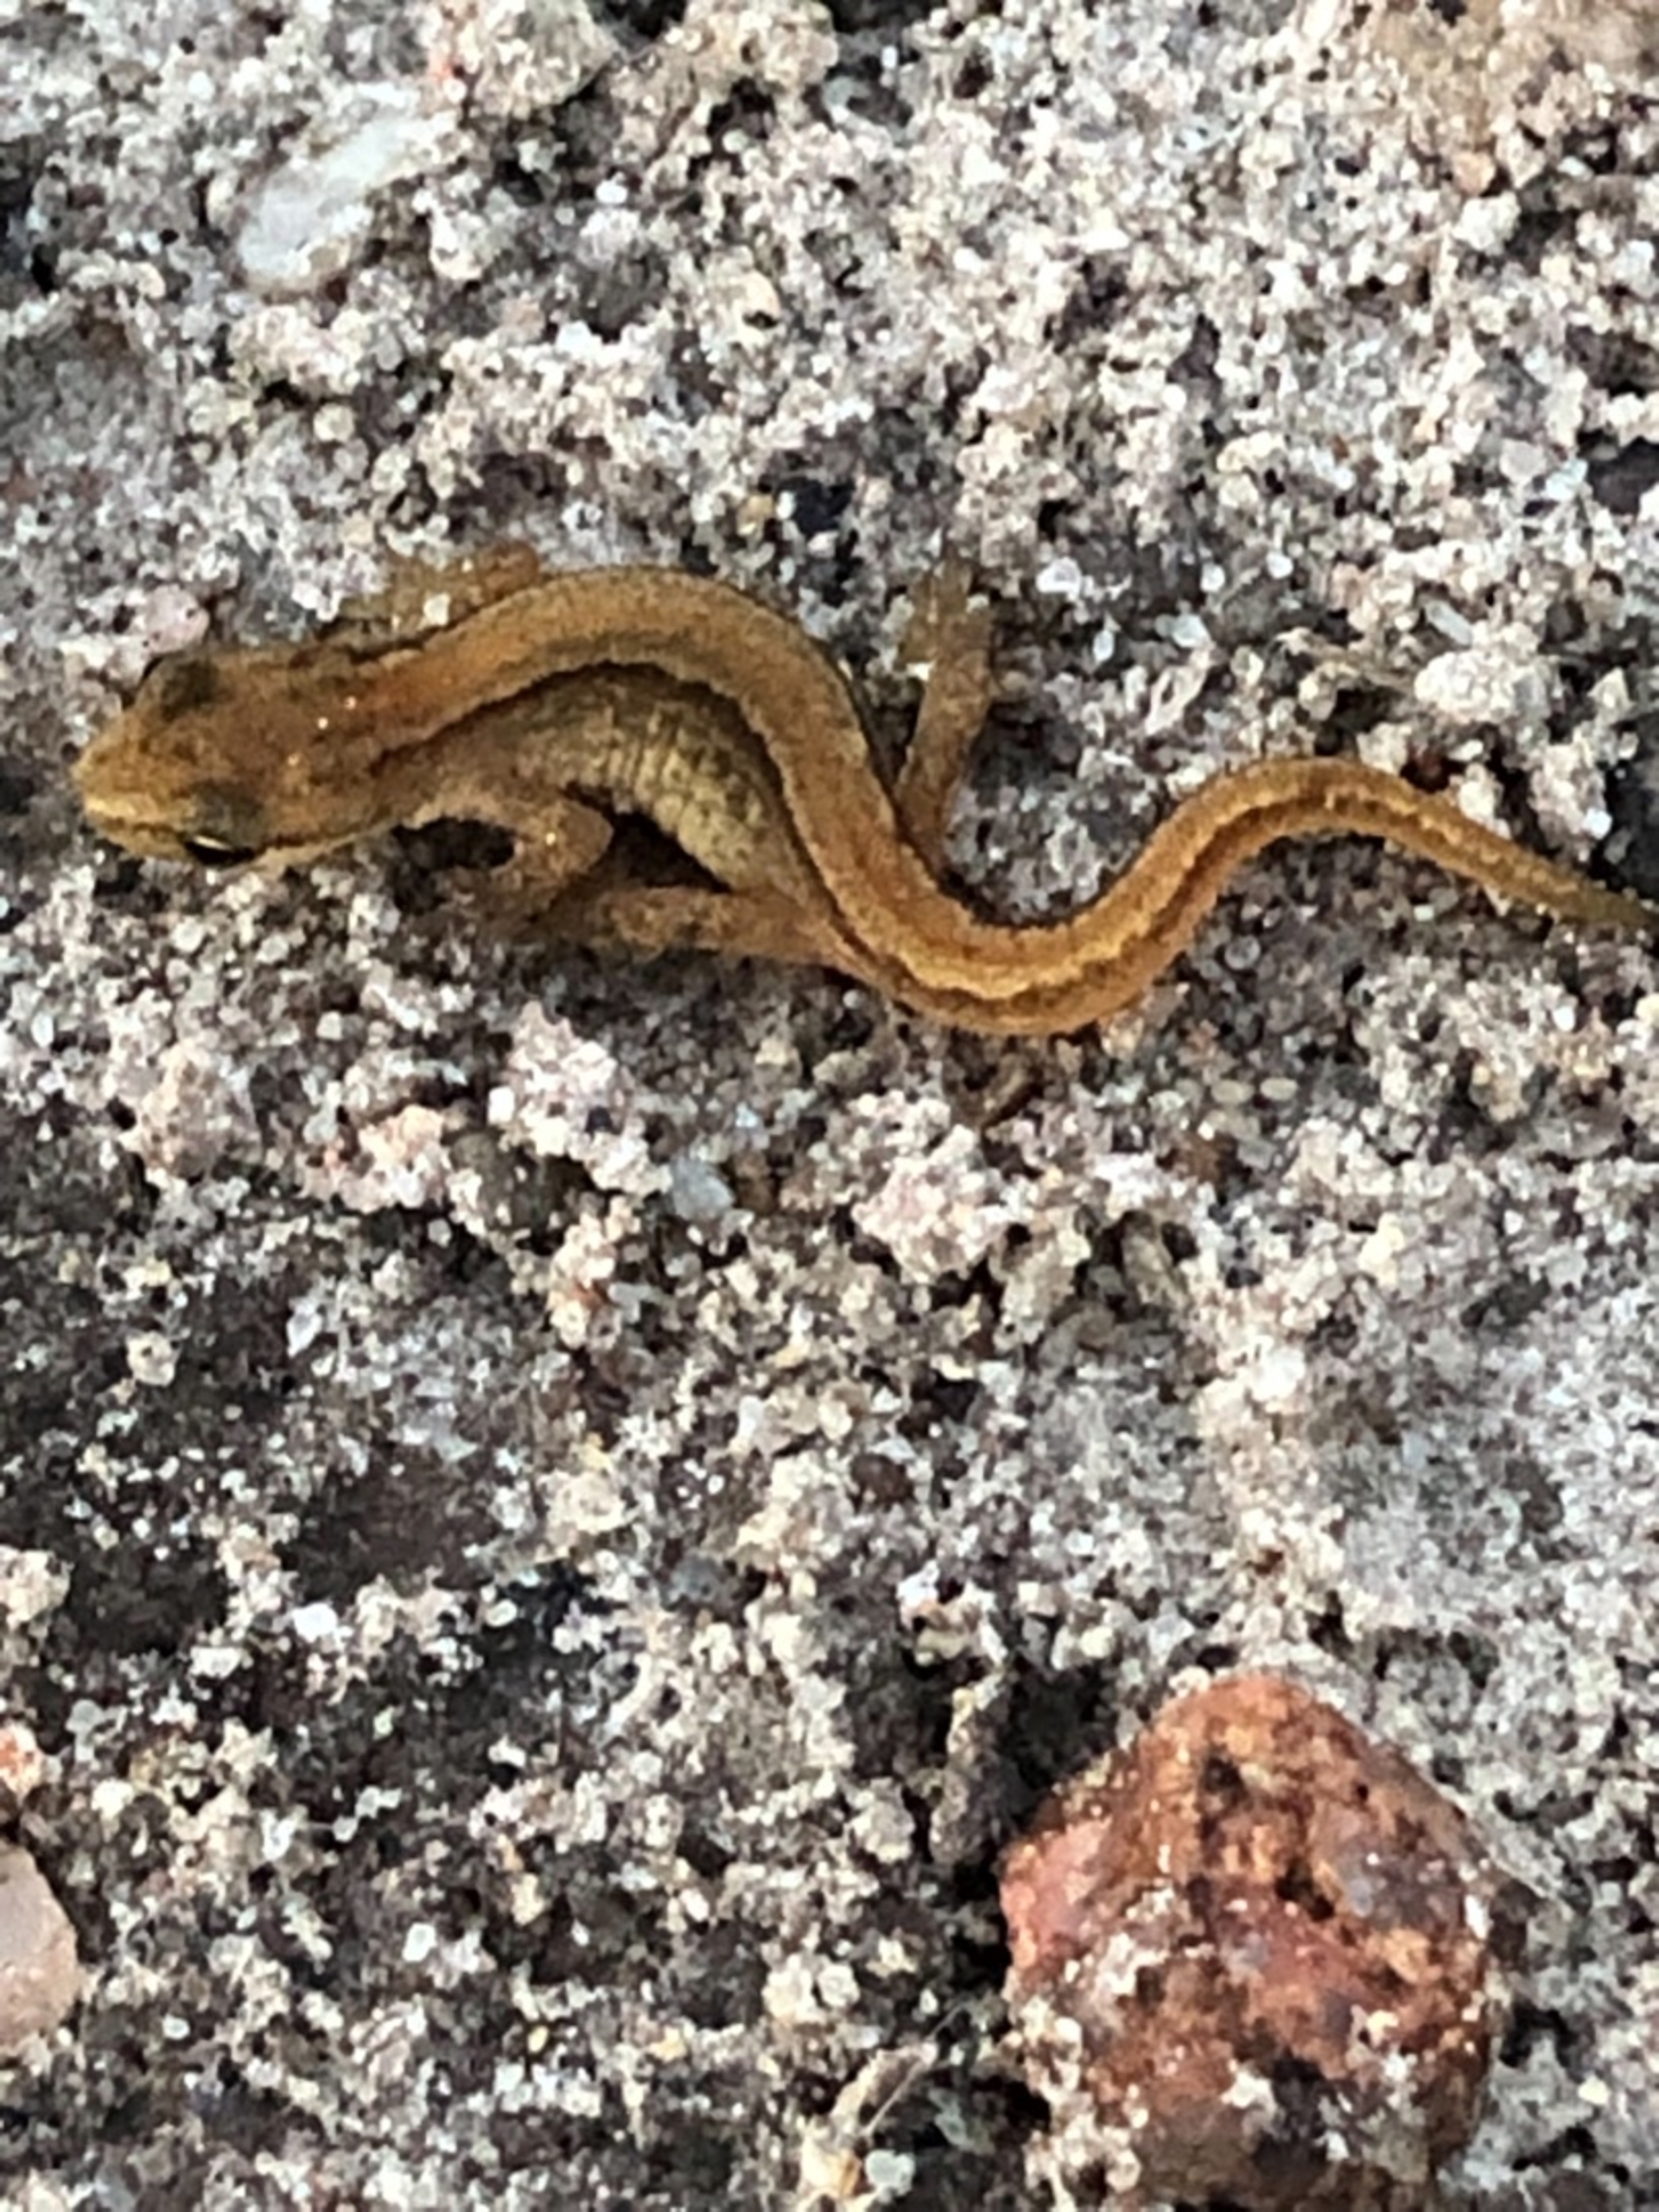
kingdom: Animalia
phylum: Chordata
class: Amphibia
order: Caudata
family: Salamandridae
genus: Lissotriton
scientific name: Lissotriton vulgaris
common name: Lille vandsalamander
